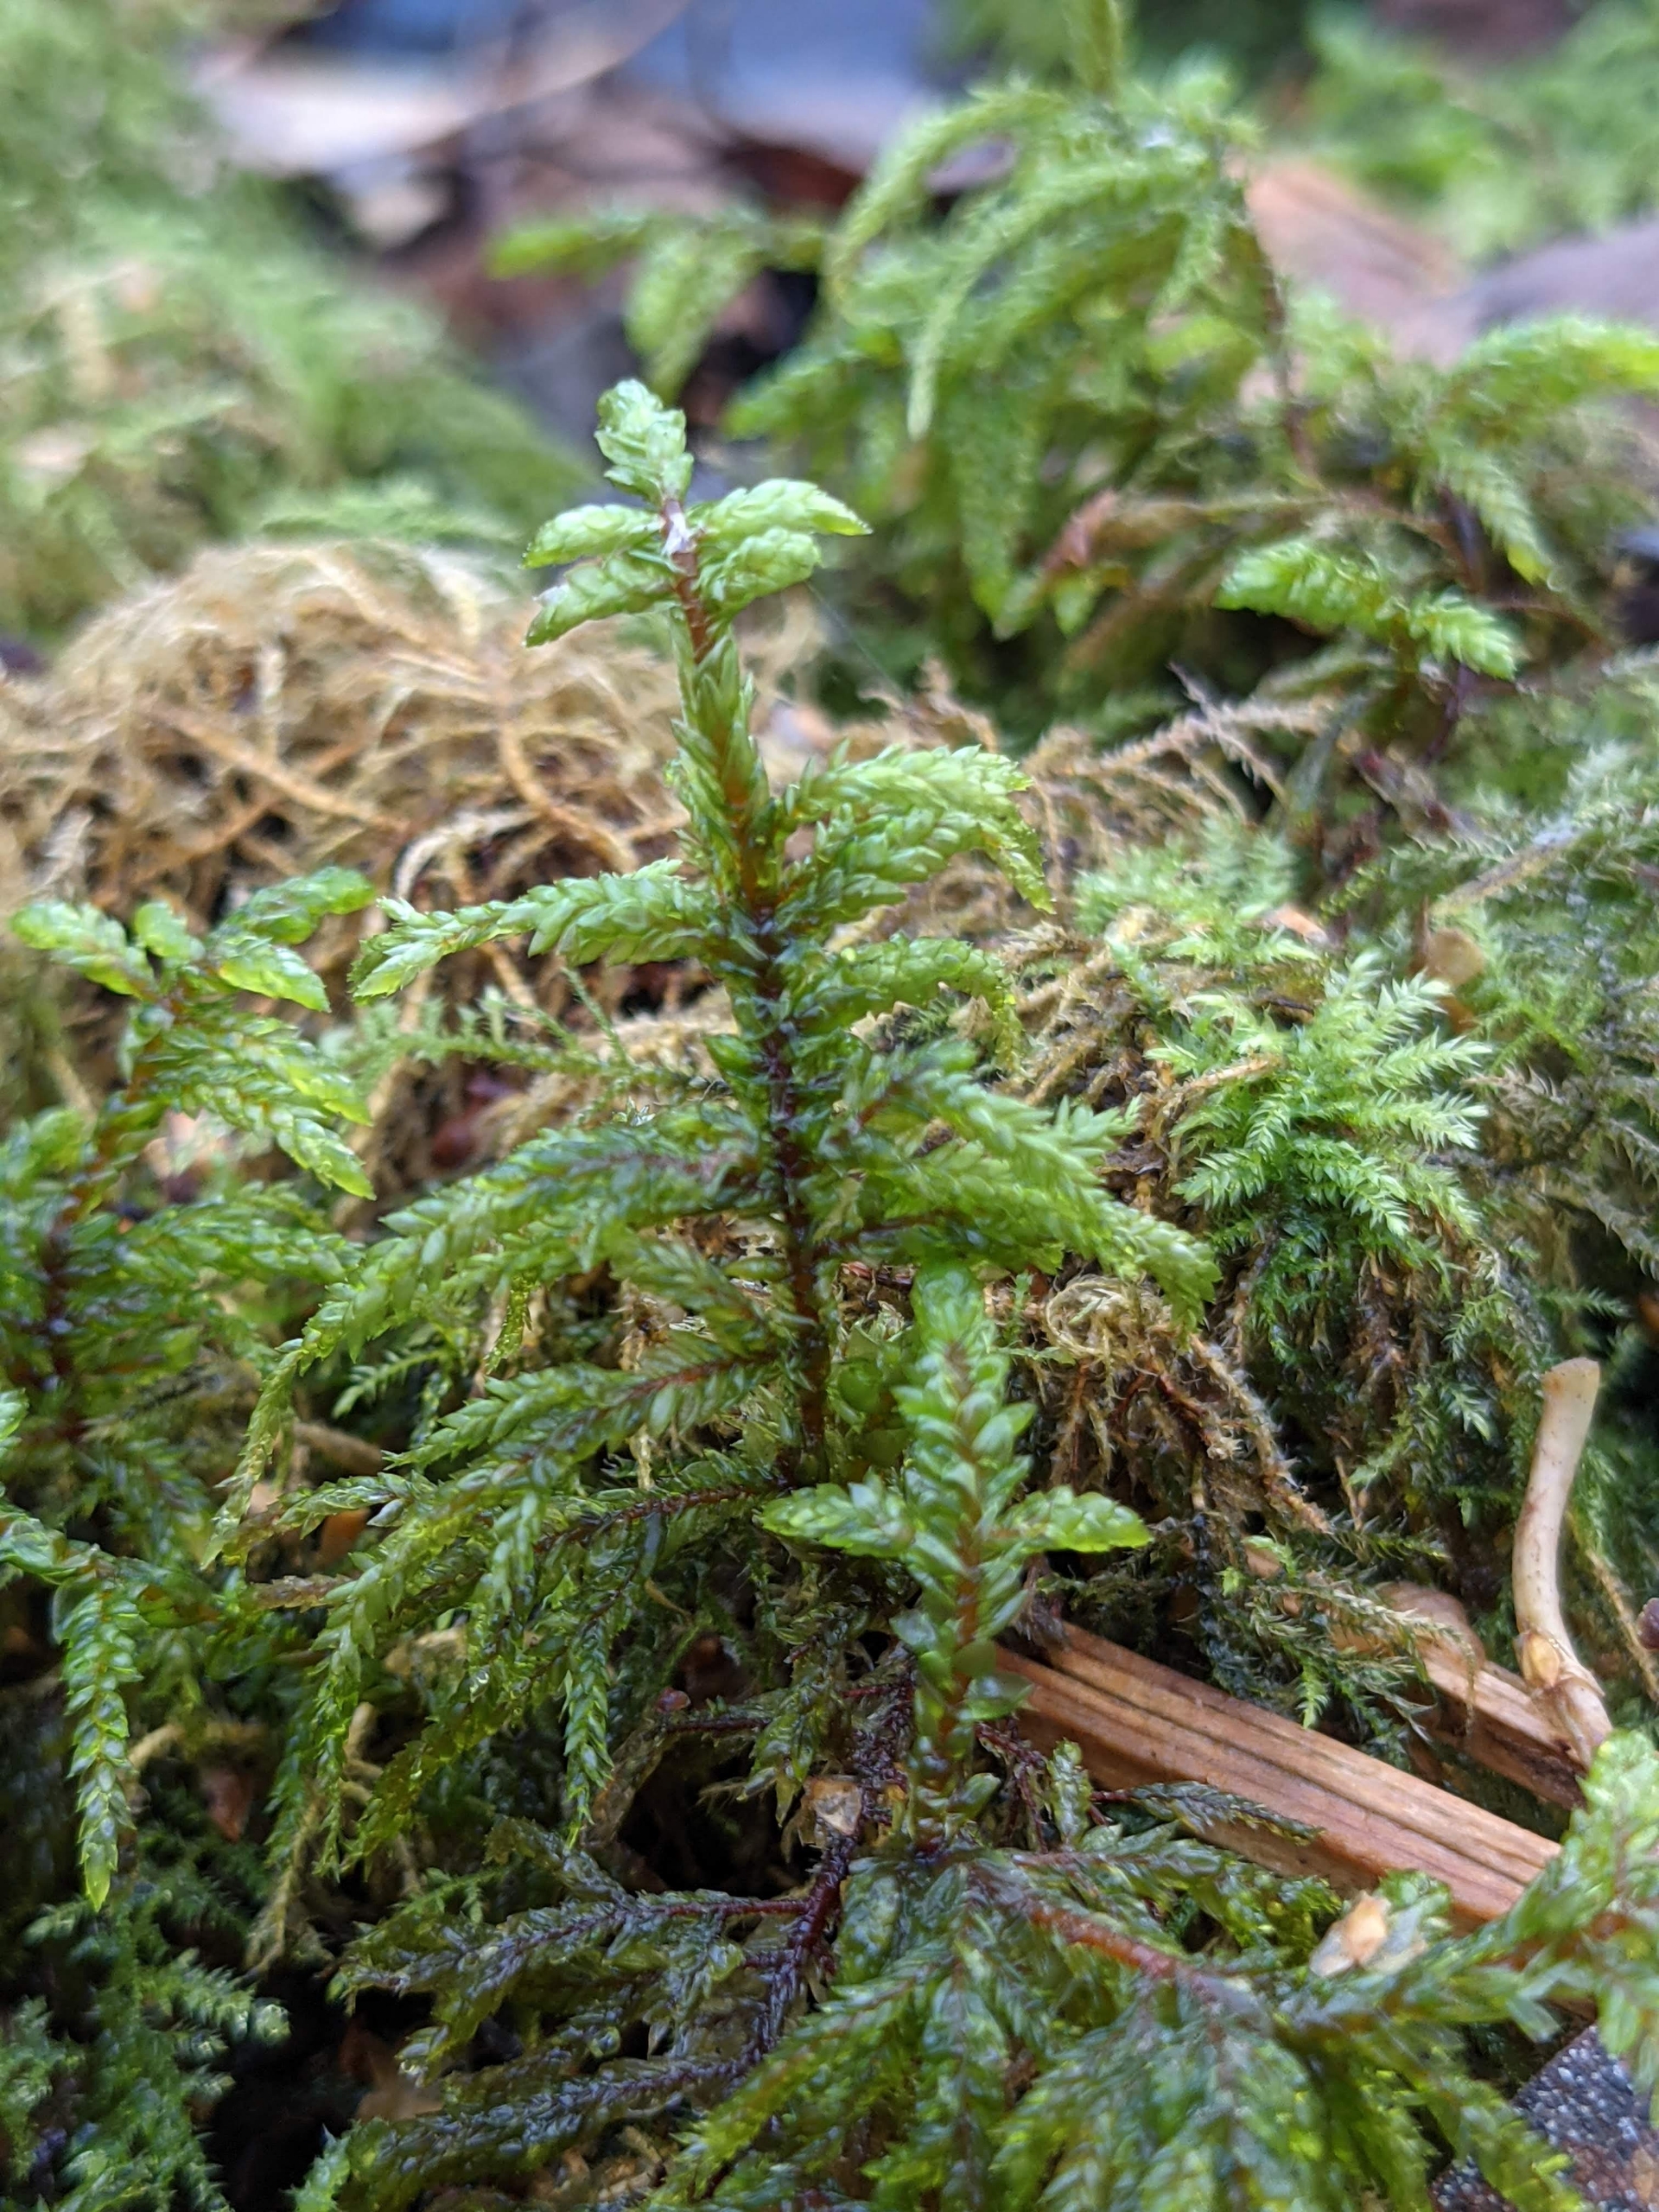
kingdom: Plantae
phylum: Bryophyta
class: Bryopsida
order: Hypnales
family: Hylocomiaceae
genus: Pleurozium
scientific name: Pleurozium schreberi
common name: Trind fyrremos
